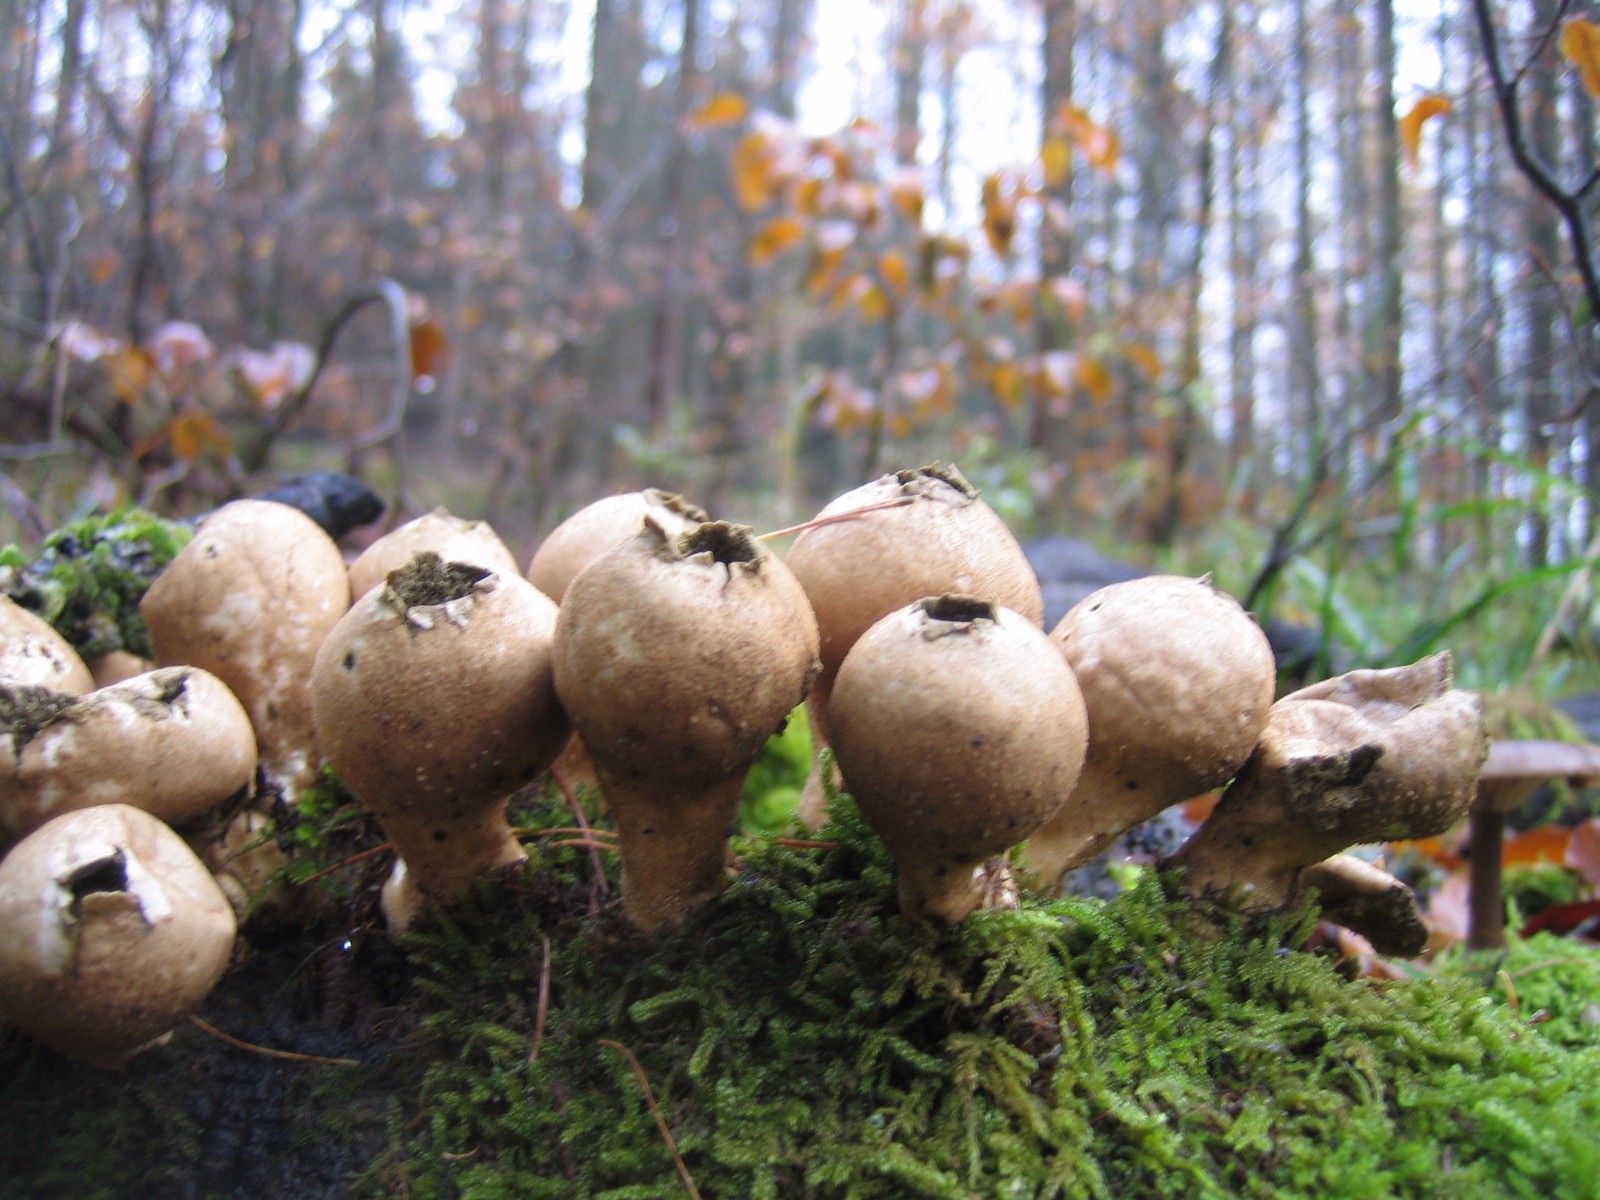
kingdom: Fungi
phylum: Basidiomycota
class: Agaricomycetes
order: Agaricales
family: Lycoperdaceae
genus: Apioperdon
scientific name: Apioperdon pyriforme
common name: pære-støvbold
